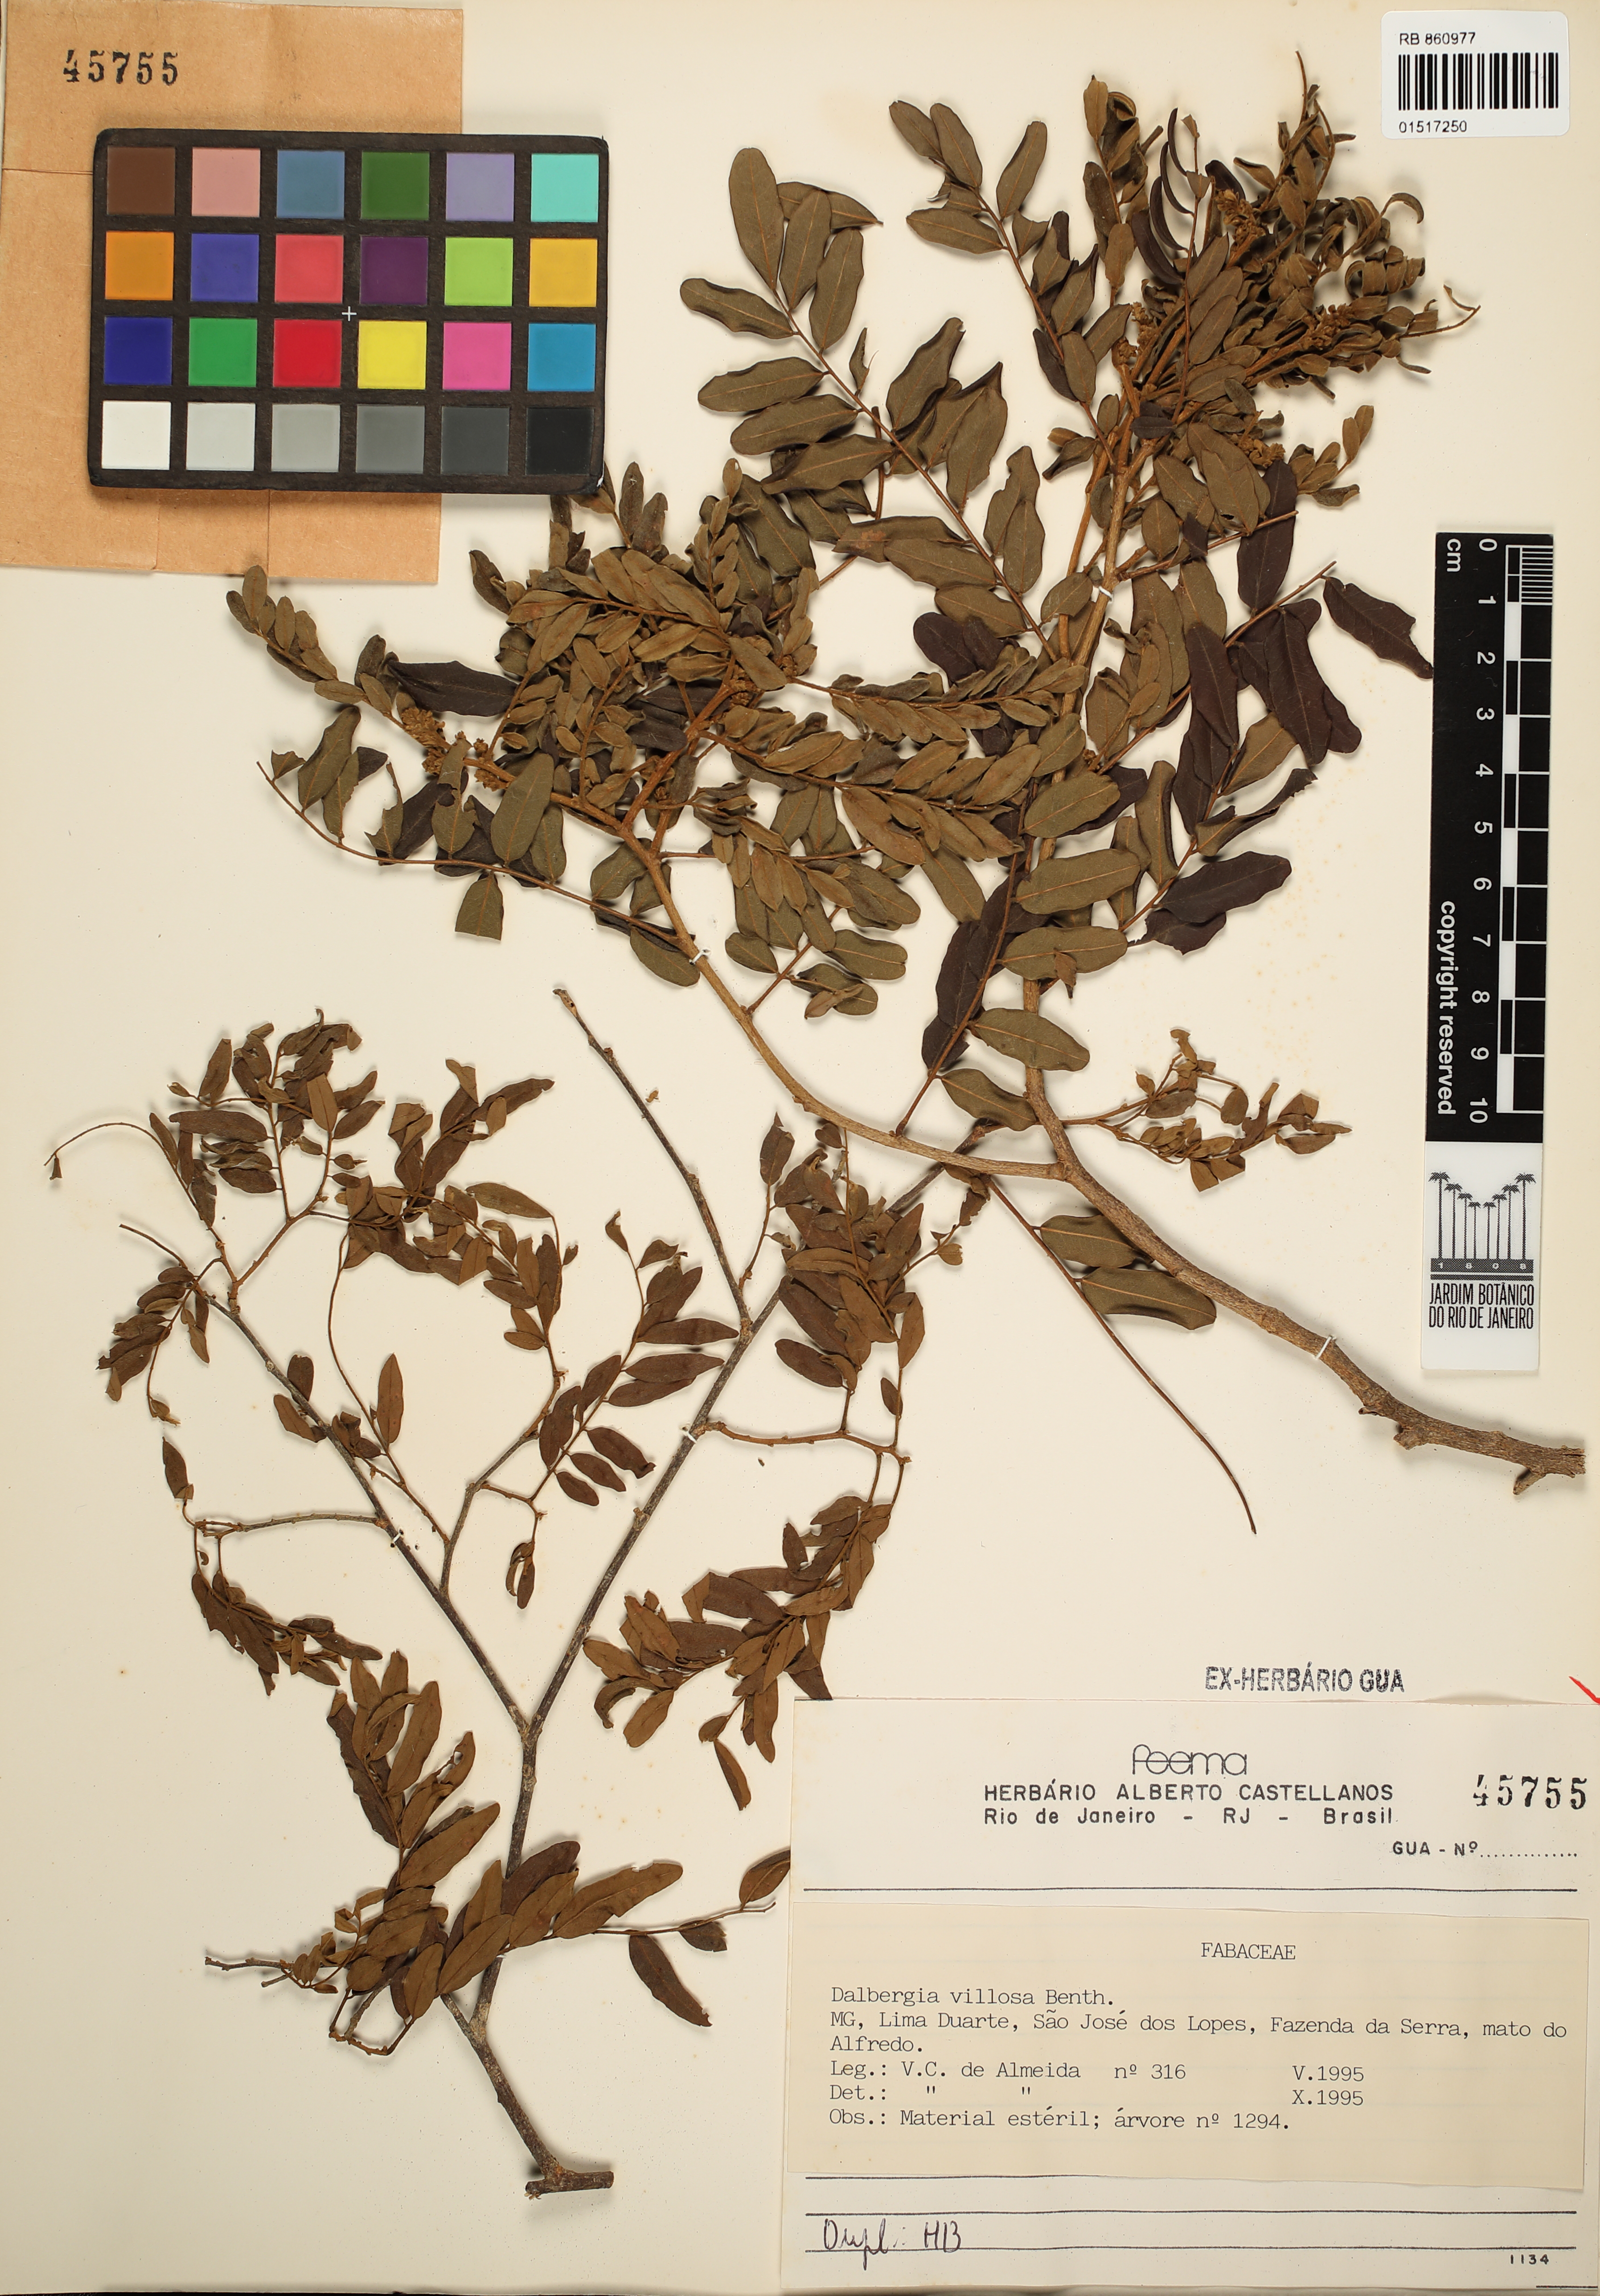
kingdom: Plantae
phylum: Tracheophyta
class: Magnoliopsida
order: Fabales
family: Fabaceae
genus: Dalbergia
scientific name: Dalbergia villosa
